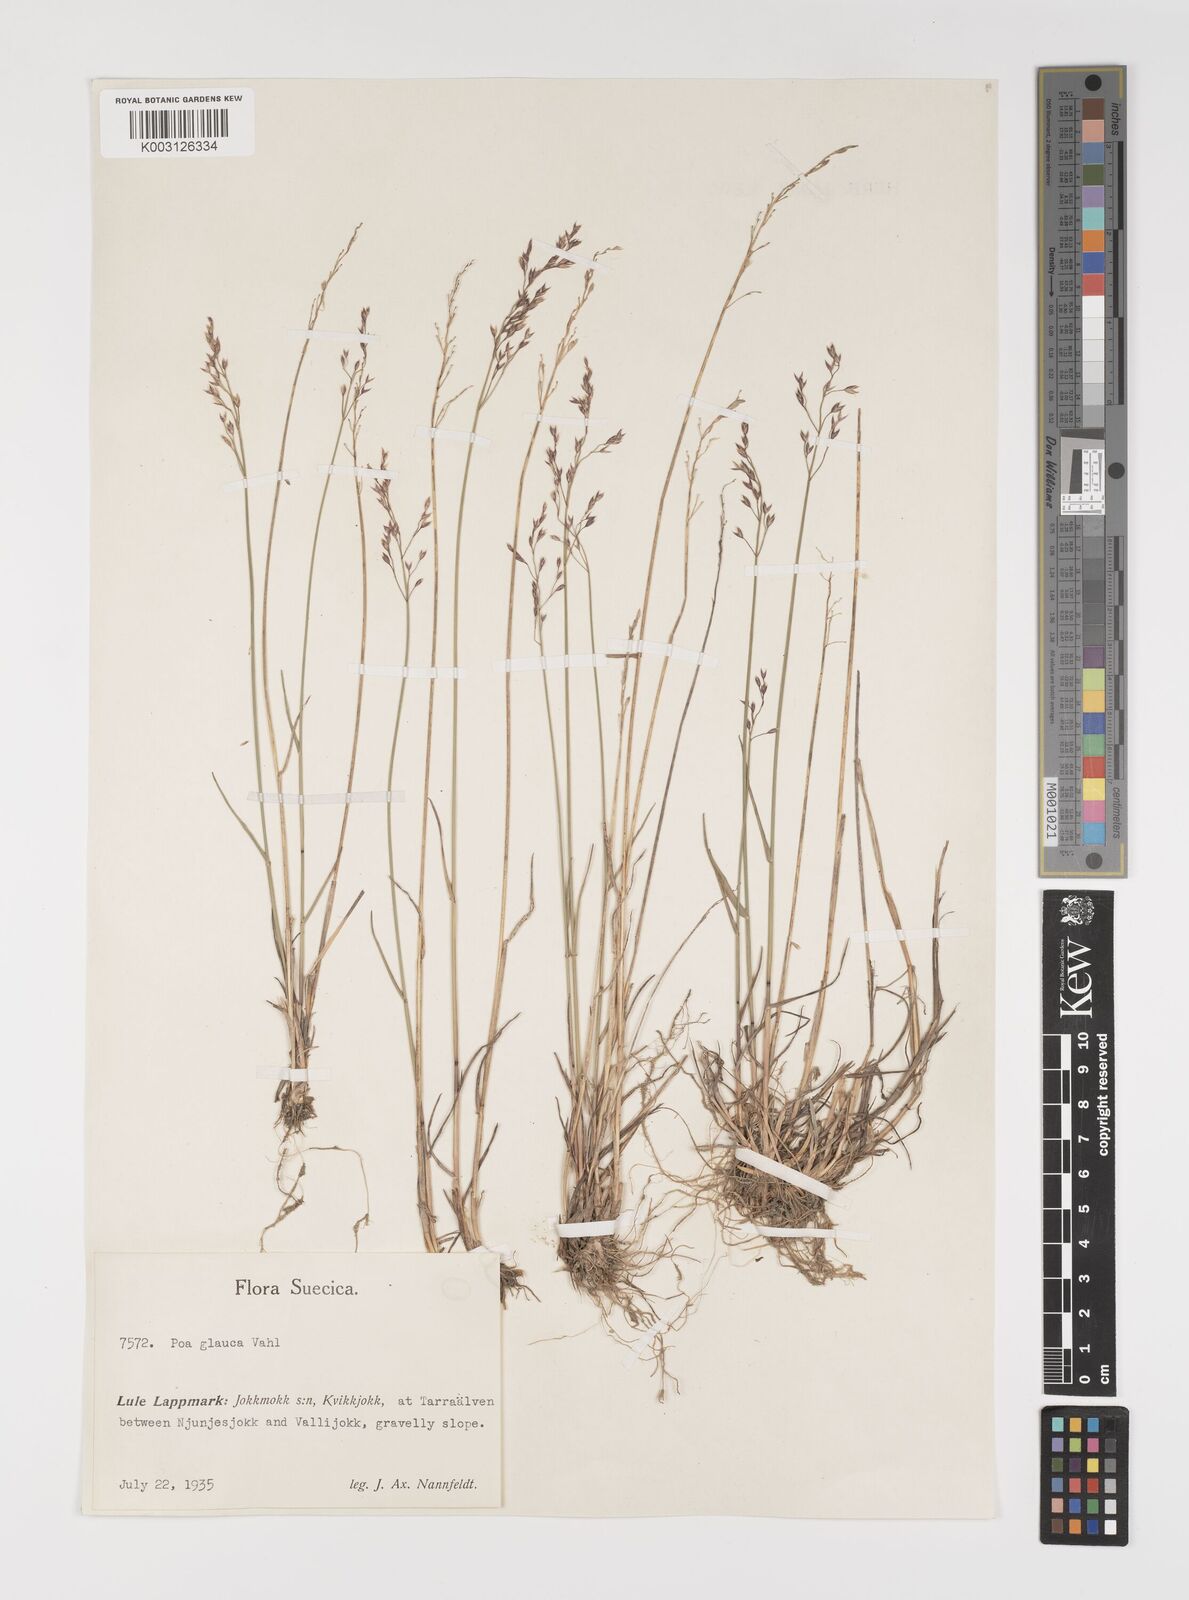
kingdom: Plantae
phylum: Tracheophyta
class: Liliopsida
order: Poales
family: Poaceae
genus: Poa
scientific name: Poa glauca
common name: Glaucous bluegrass
